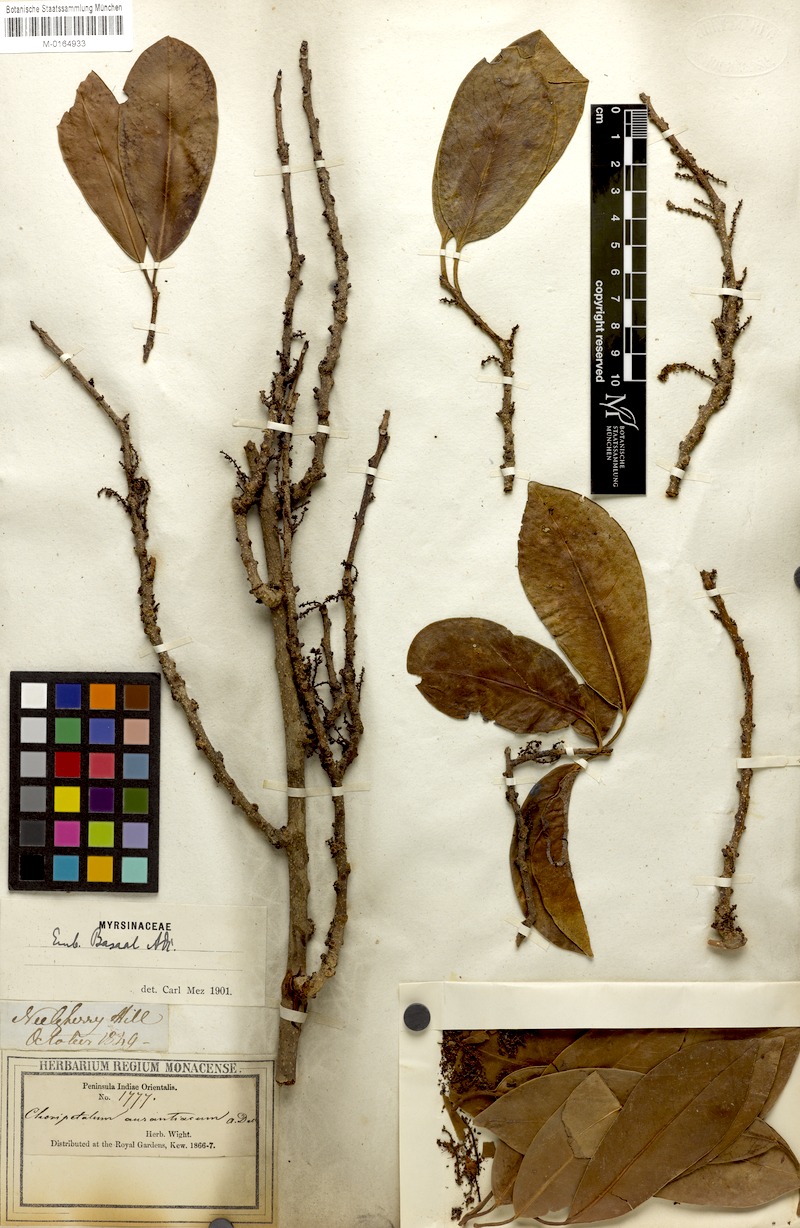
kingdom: Plantae
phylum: Tracheophyta
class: Magnoliopsida
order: Ericales
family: Primulaceae
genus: Embelia
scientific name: Embelia viridiflora
